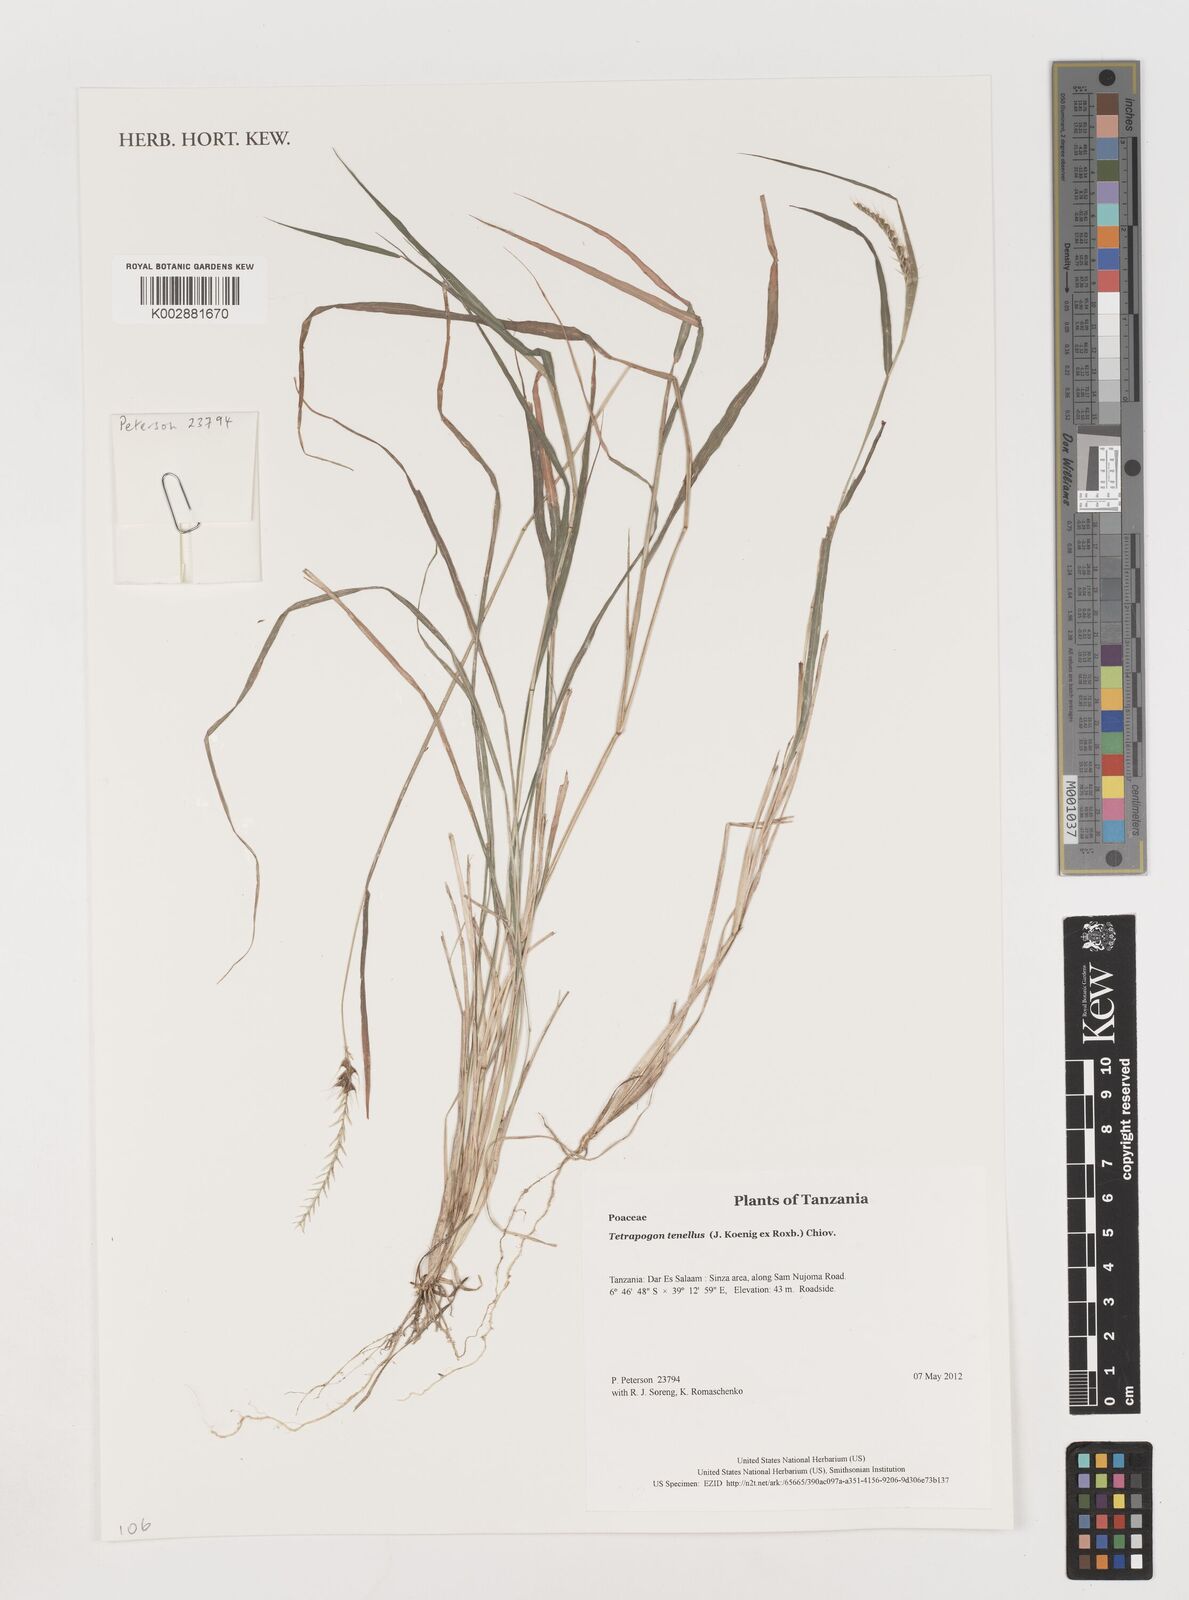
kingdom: Plantae
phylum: Tracheophyta
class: Liliopsida
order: Poales
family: Poaceae
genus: Tetrapogon
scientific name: Tetrapogon tenellus
